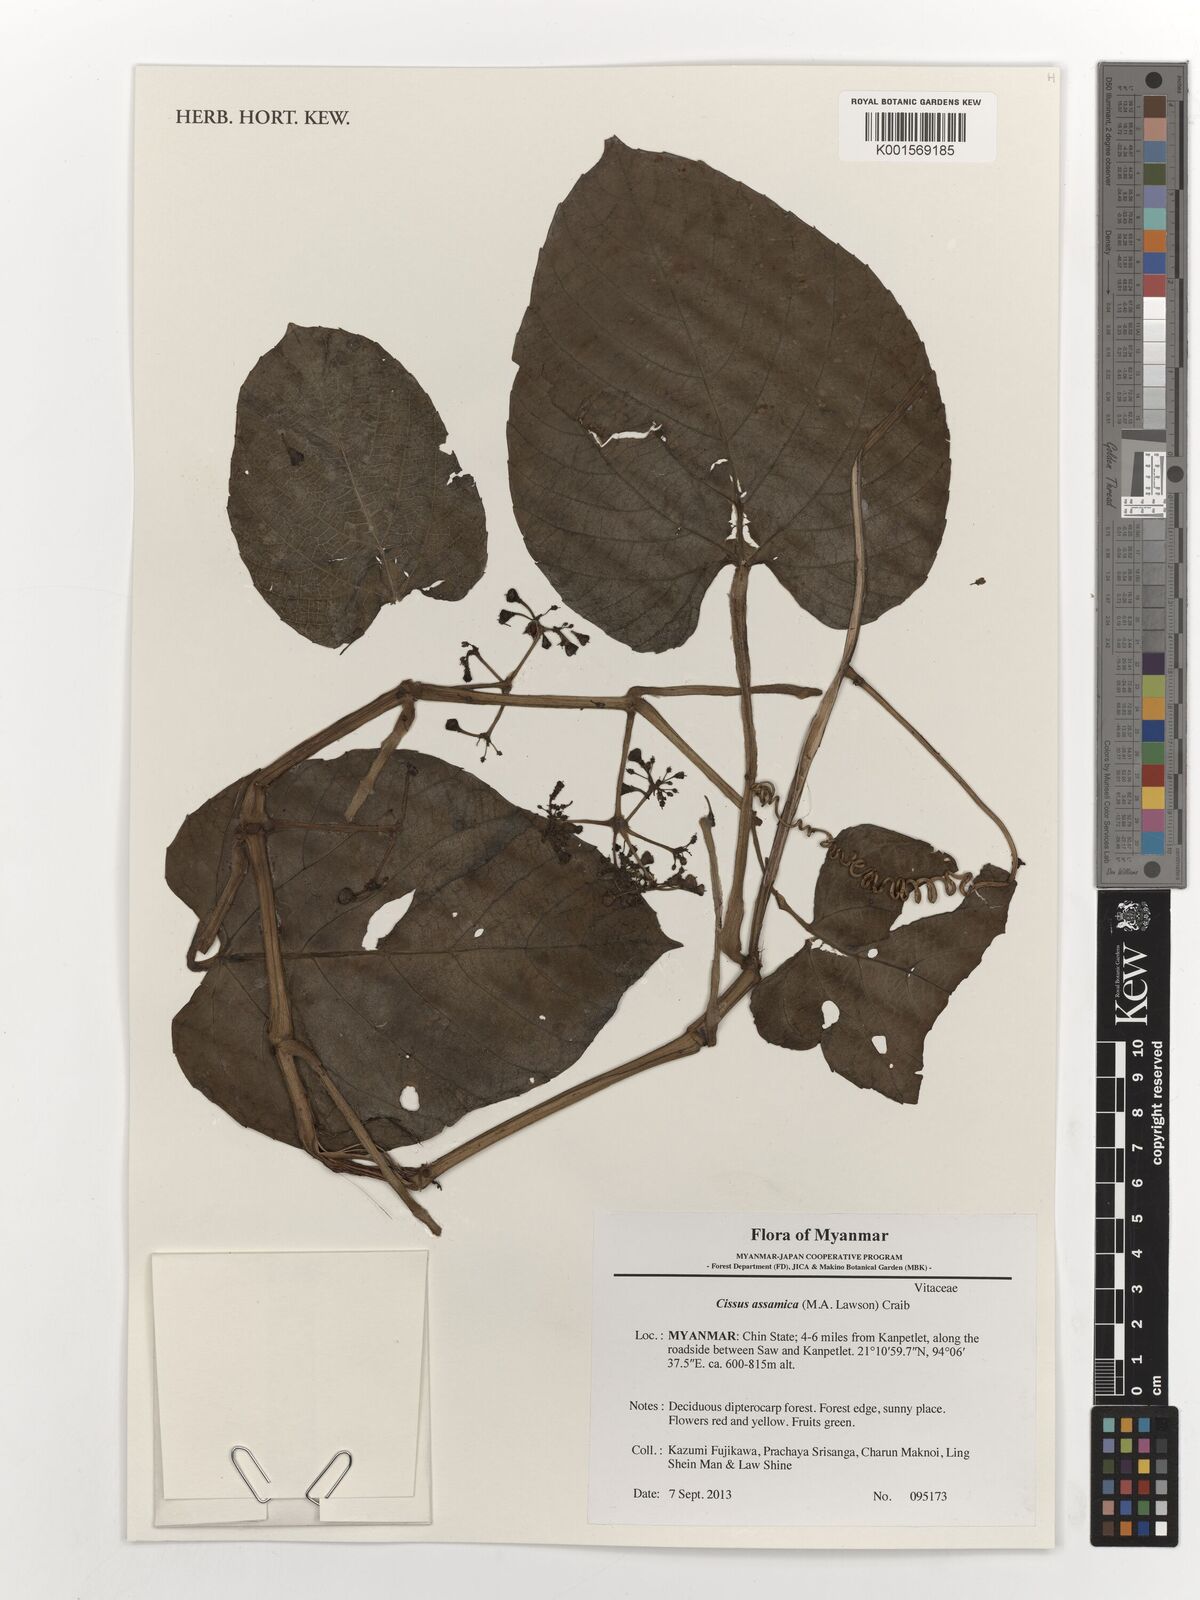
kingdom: Plantae
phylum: Tracheophyta
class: Magnoliopsida
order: Vitales
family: Vitaceae
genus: Cissus
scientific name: Cissus assamica
